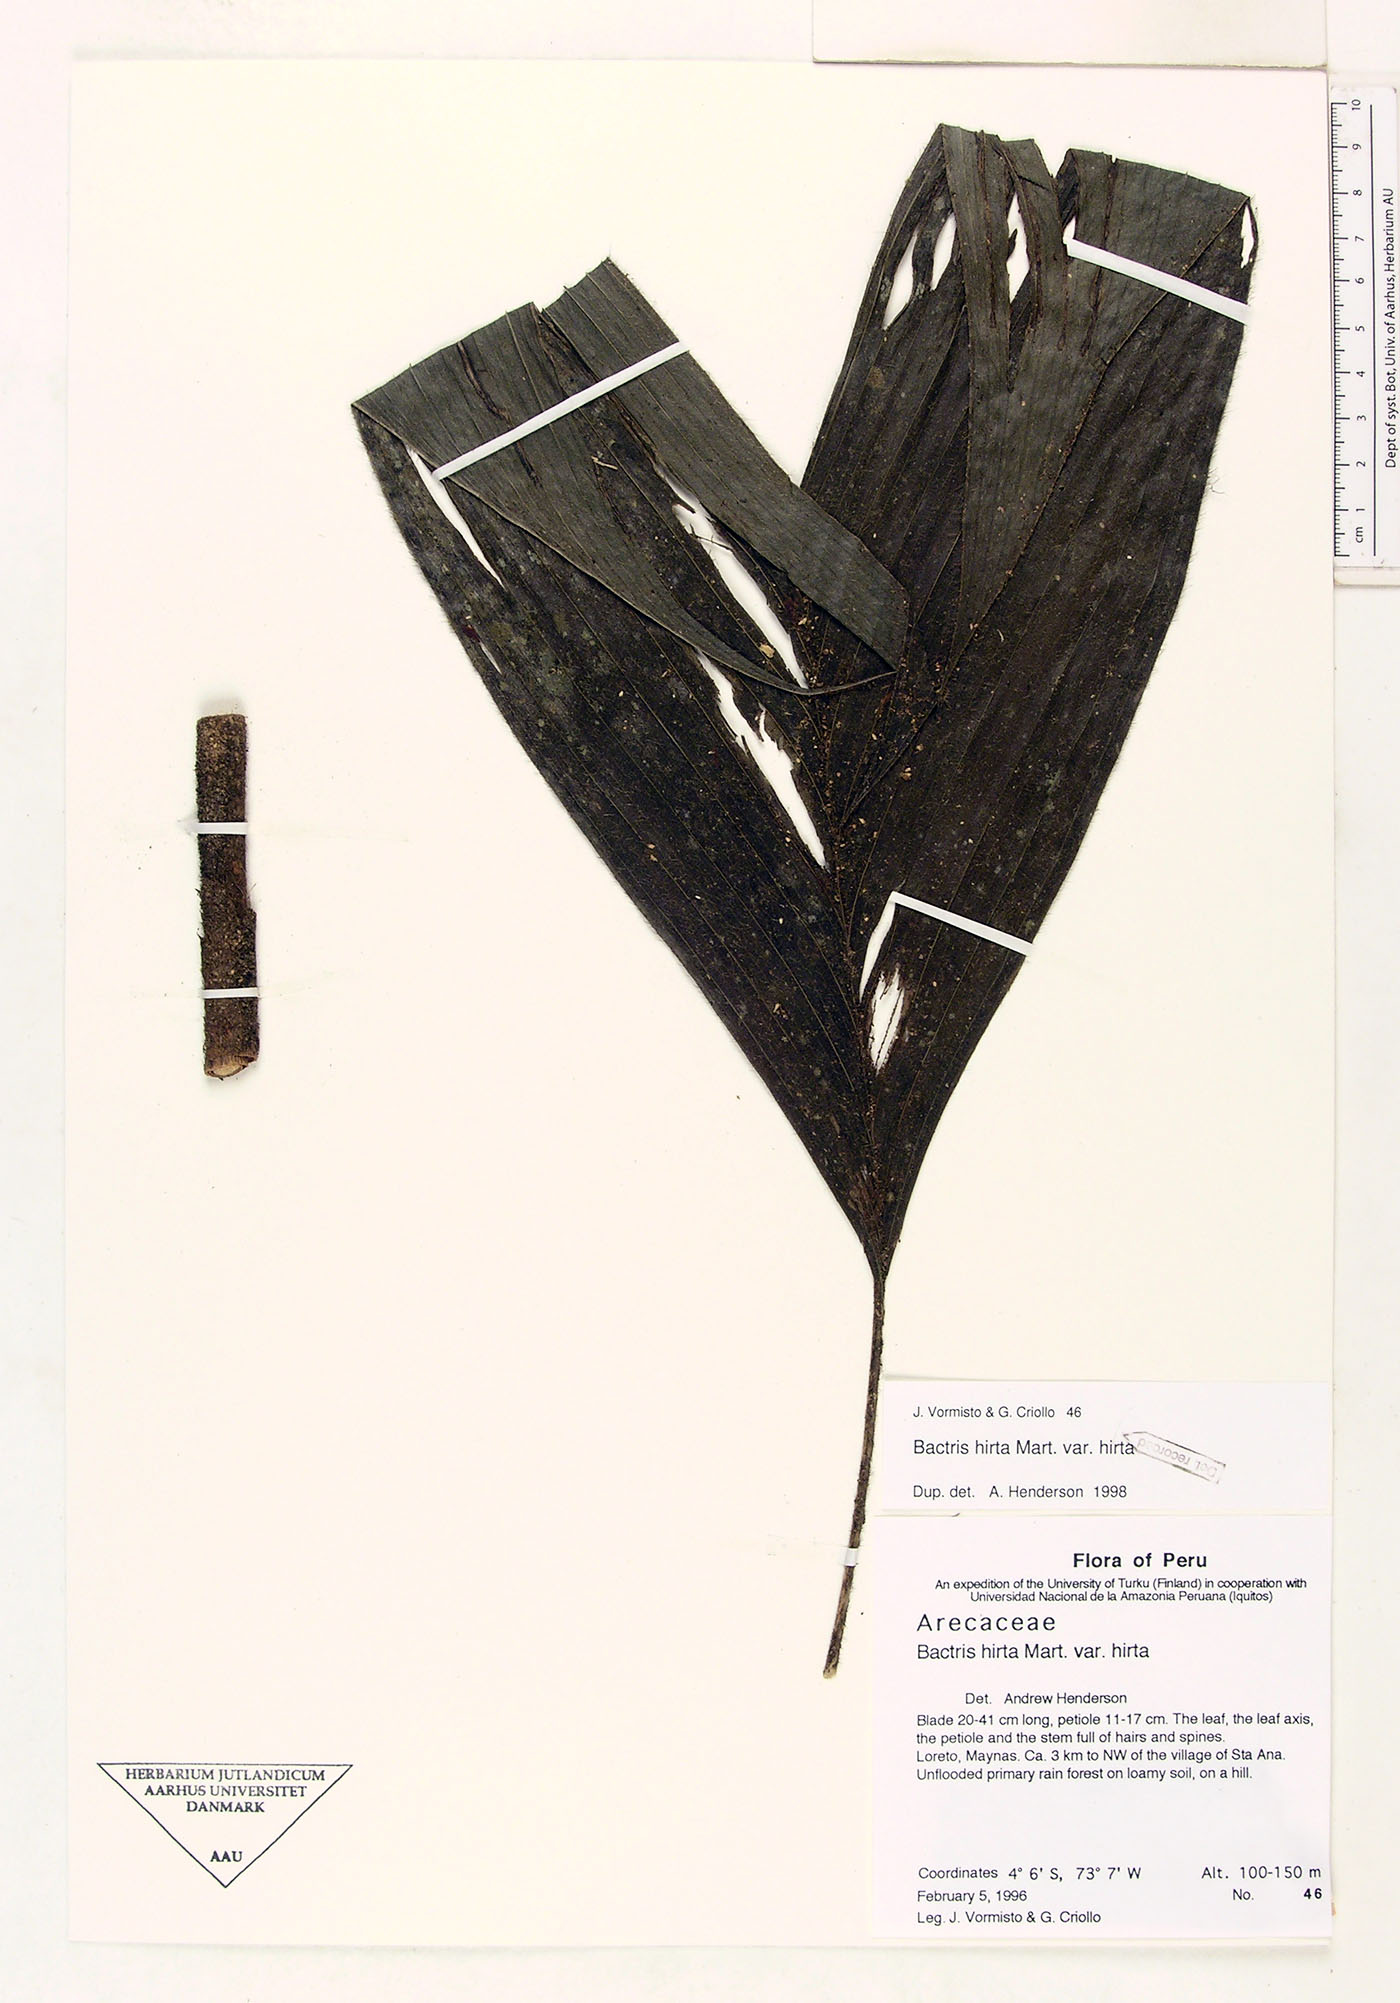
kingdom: Plantae
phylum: Tracheophyta
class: Liliopsida
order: Arecales
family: Arecaceae
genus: Bactris
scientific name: Bactris hirta
